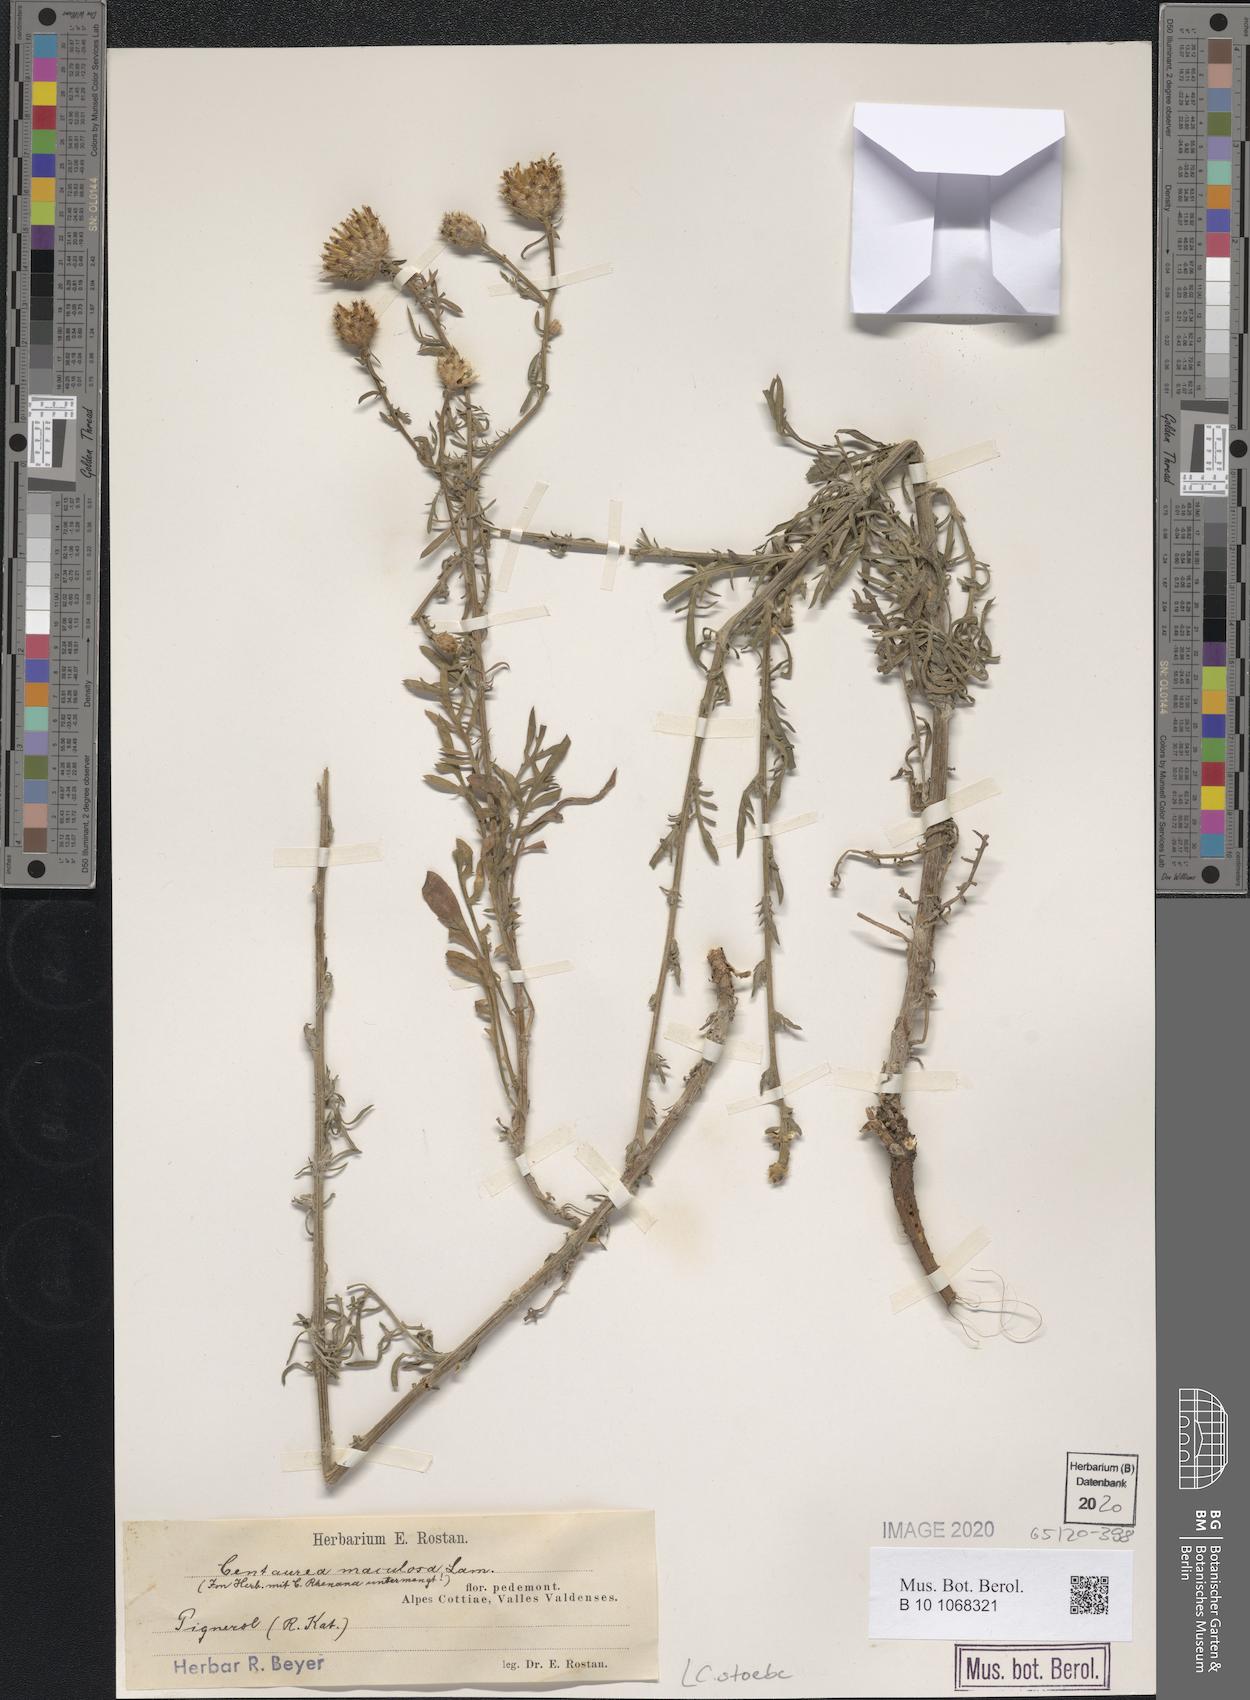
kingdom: Plantae
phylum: Tracheophyta
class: Magnoliopsida
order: Asterales
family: Asteraceae
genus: Centaurea
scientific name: Centaurea stoebe
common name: Spotted knapweed
